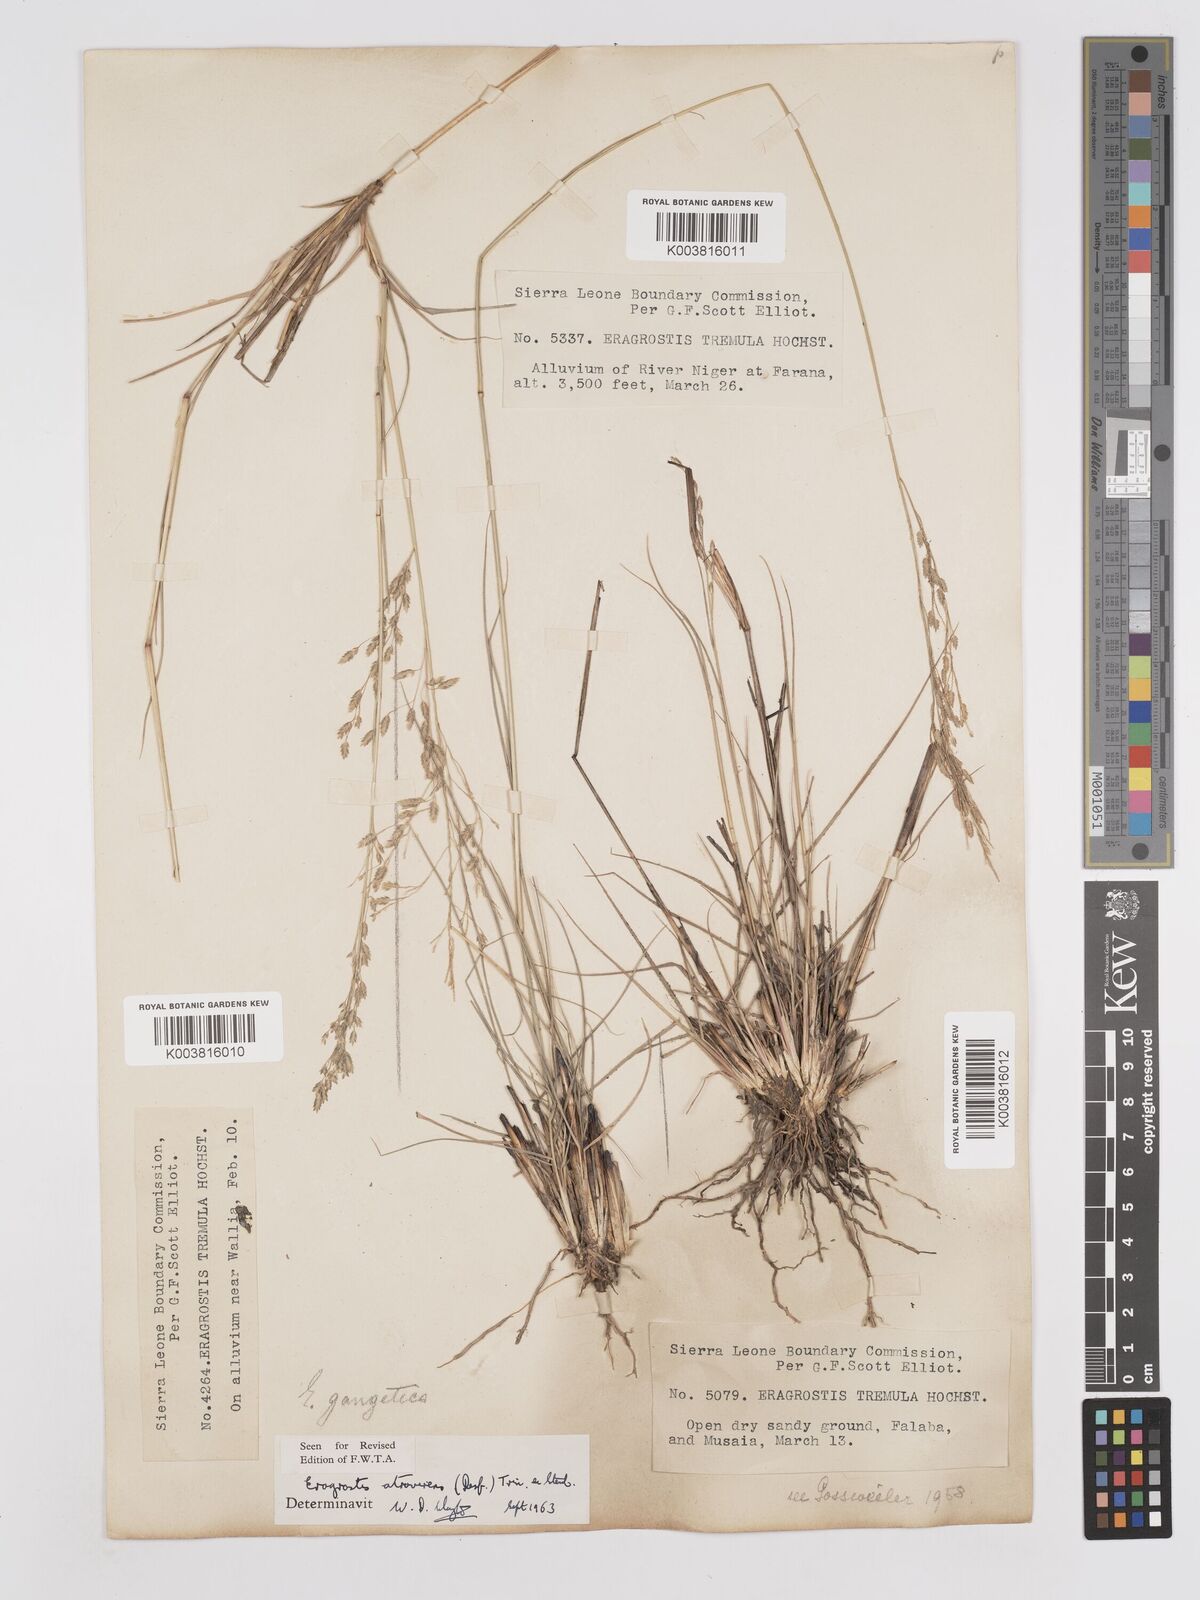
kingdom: Plantae
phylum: Tracheophyta
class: Liliopsida
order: Poales
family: Poaceae
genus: Eragrostis
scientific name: Eragrostis atrovirens
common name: Thalia lovegrass
